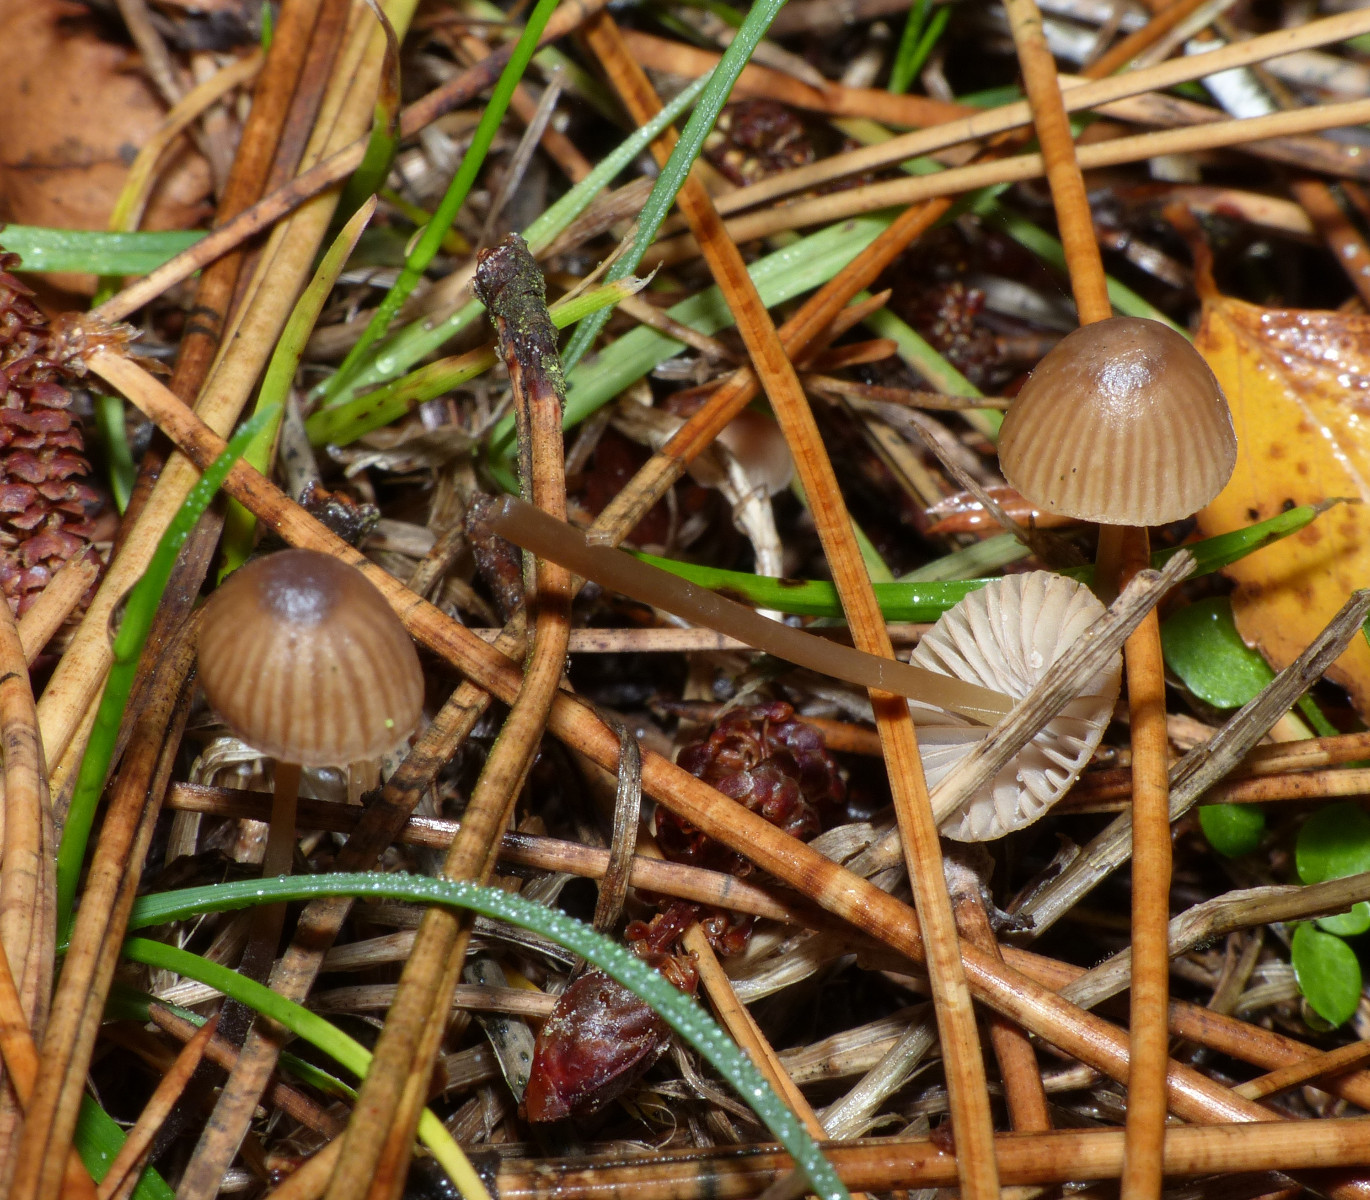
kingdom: Fungi
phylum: Basidiomycota
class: Agaricomycetes
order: Agaricales
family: Mycenaceae
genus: Mycena
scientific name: Mycena olivaceomarginata
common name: brunægget huesvamp
